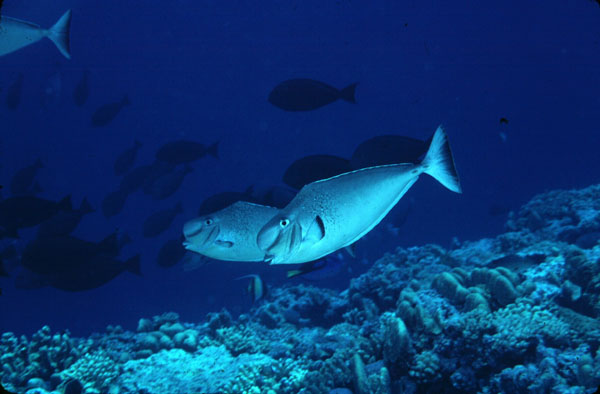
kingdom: Animalia
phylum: Chordata
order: Perciformes
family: Acanthuridae
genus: Naso
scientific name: Naso tuberosus
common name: Humpnose unicornfish
